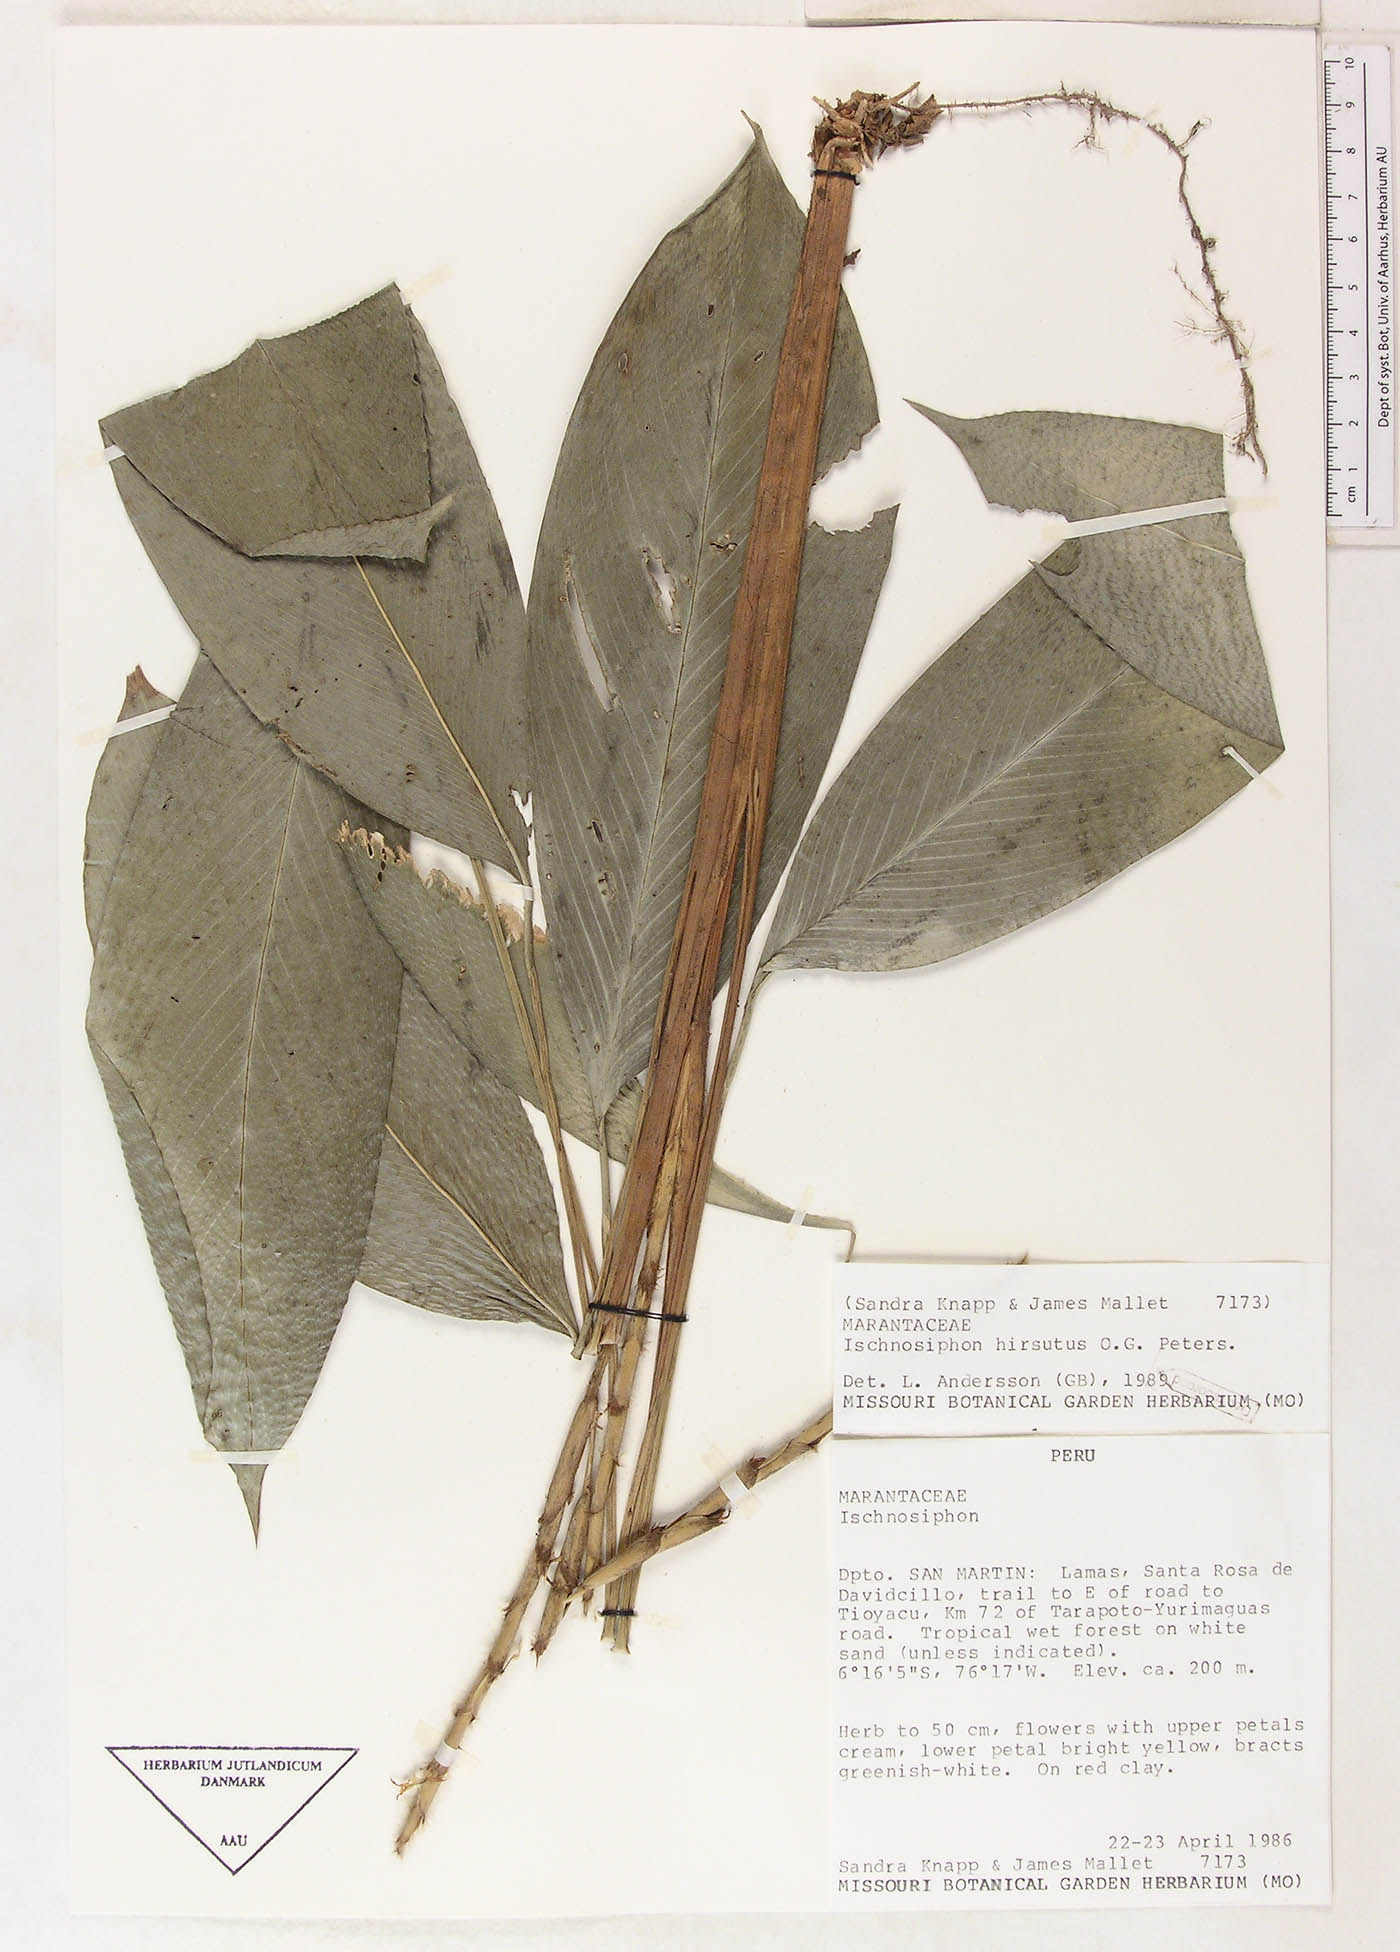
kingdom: Plantae
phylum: Tracheophyta
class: Liliopsida
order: Zingiberales
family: Marantaceae
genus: Ischnosiphon
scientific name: Ischnosiphon hirsutus
